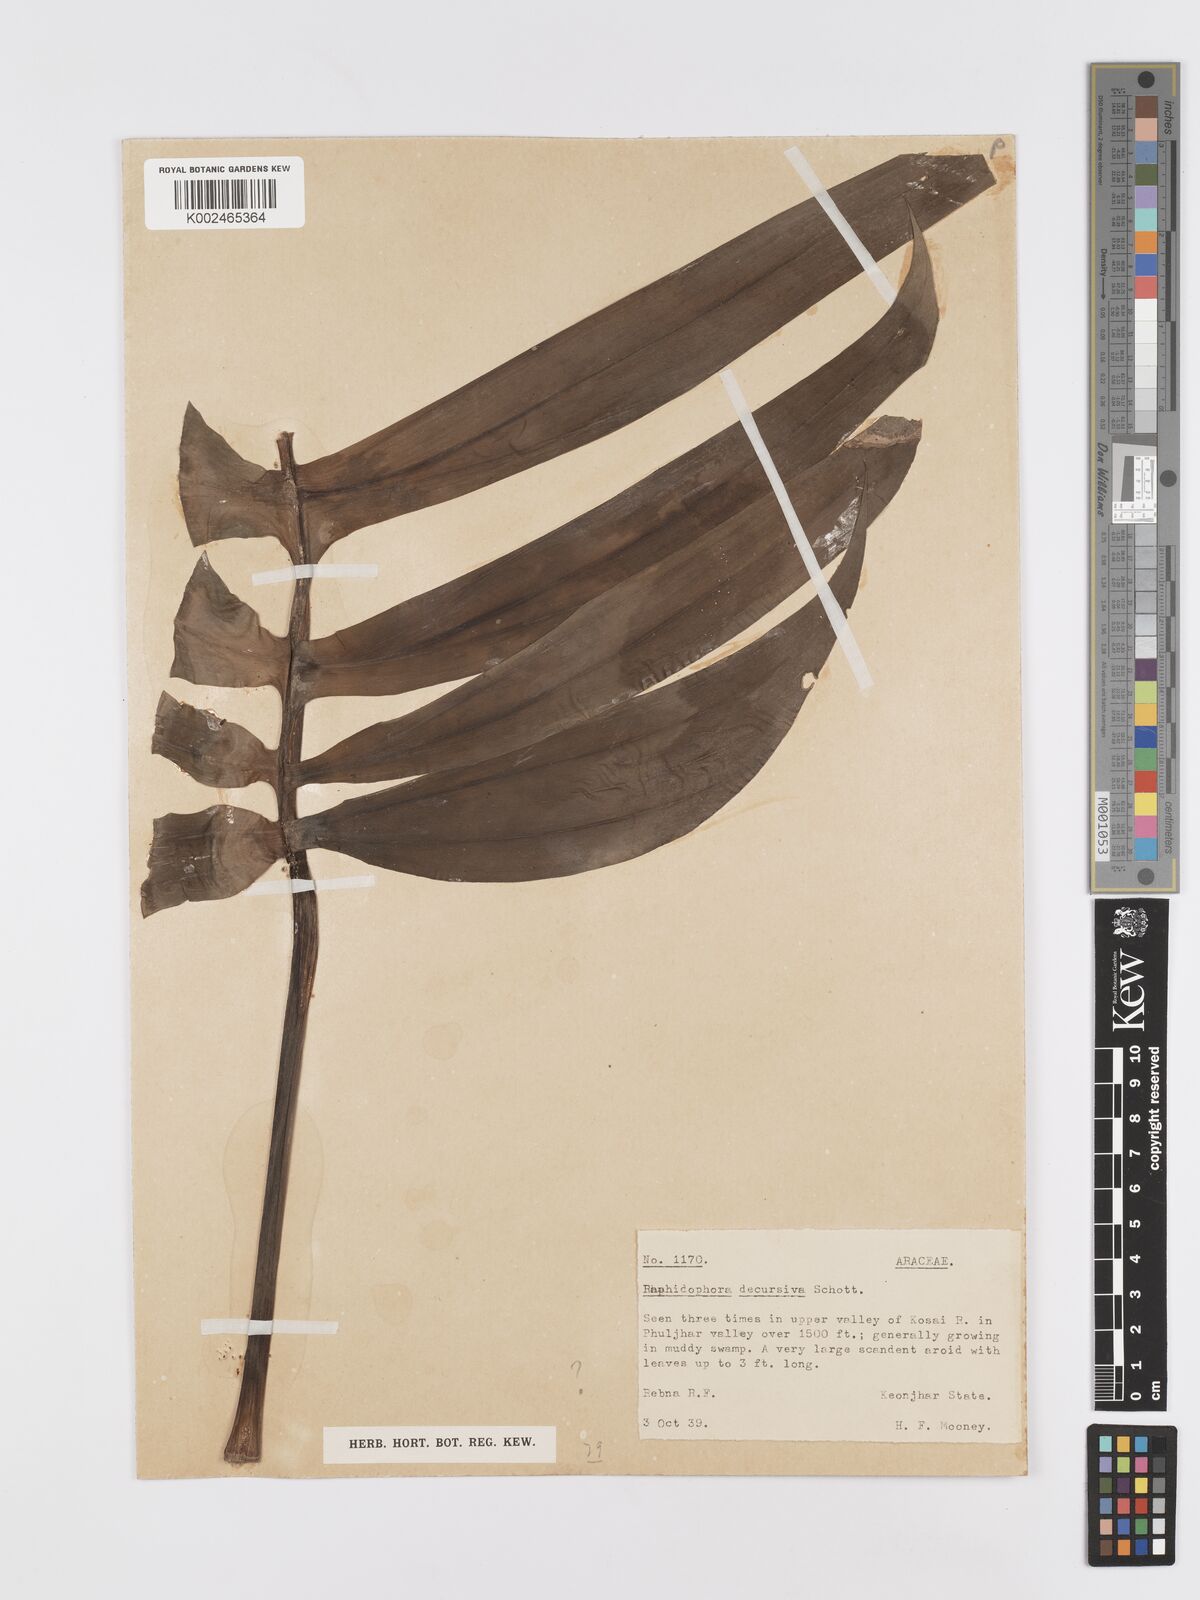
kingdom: Plantae
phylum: Tracheophyta
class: Liliopsida
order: Alismatales
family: Araceae
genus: Rhaphidophora
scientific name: Rhaphidophora decursiva
